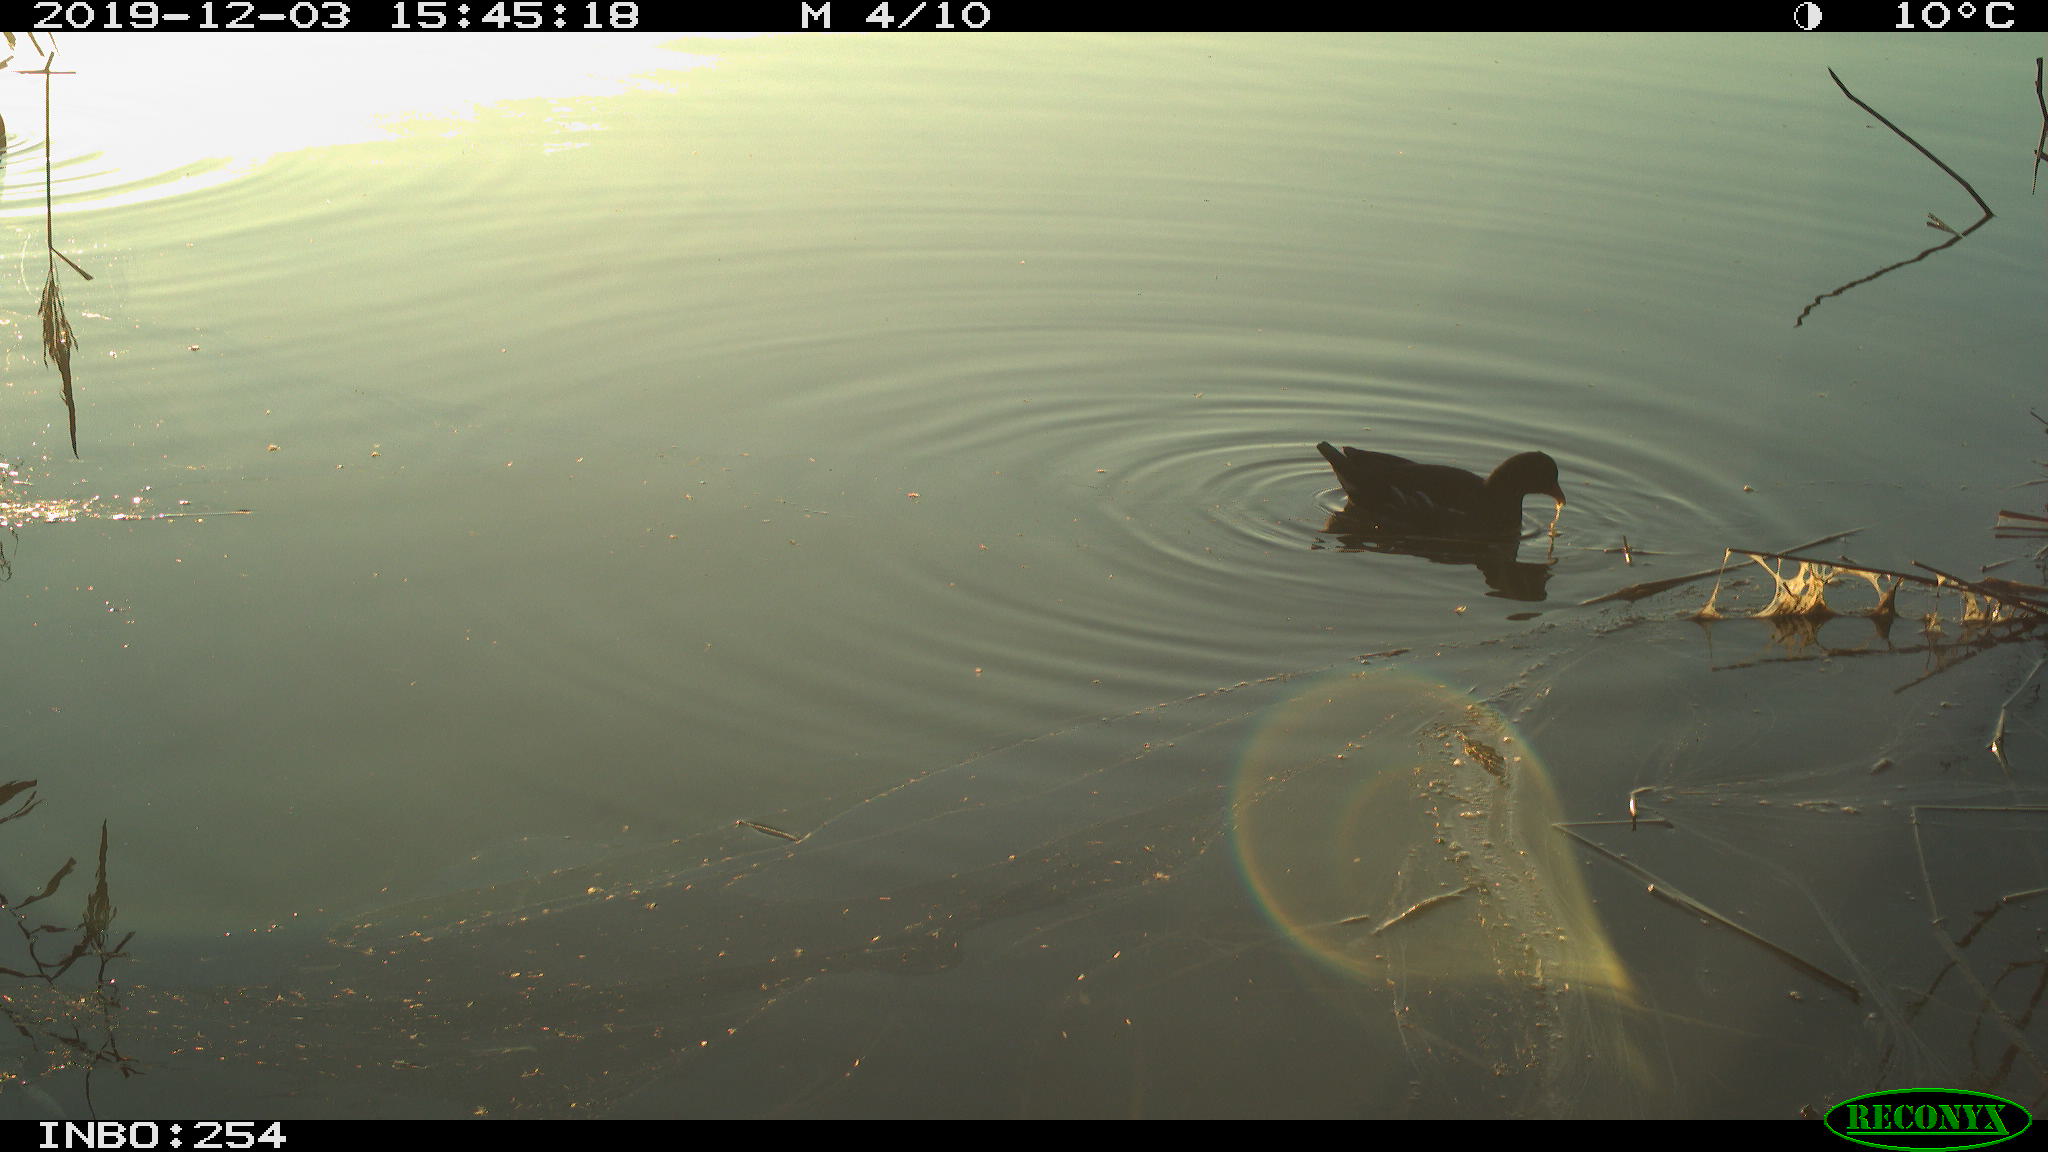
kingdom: Animalia
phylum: Chordata
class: Aves
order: Gruiformes
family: Rallidae
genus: Gallinula
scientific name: Gallinula chloropus
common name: Common moorhen
